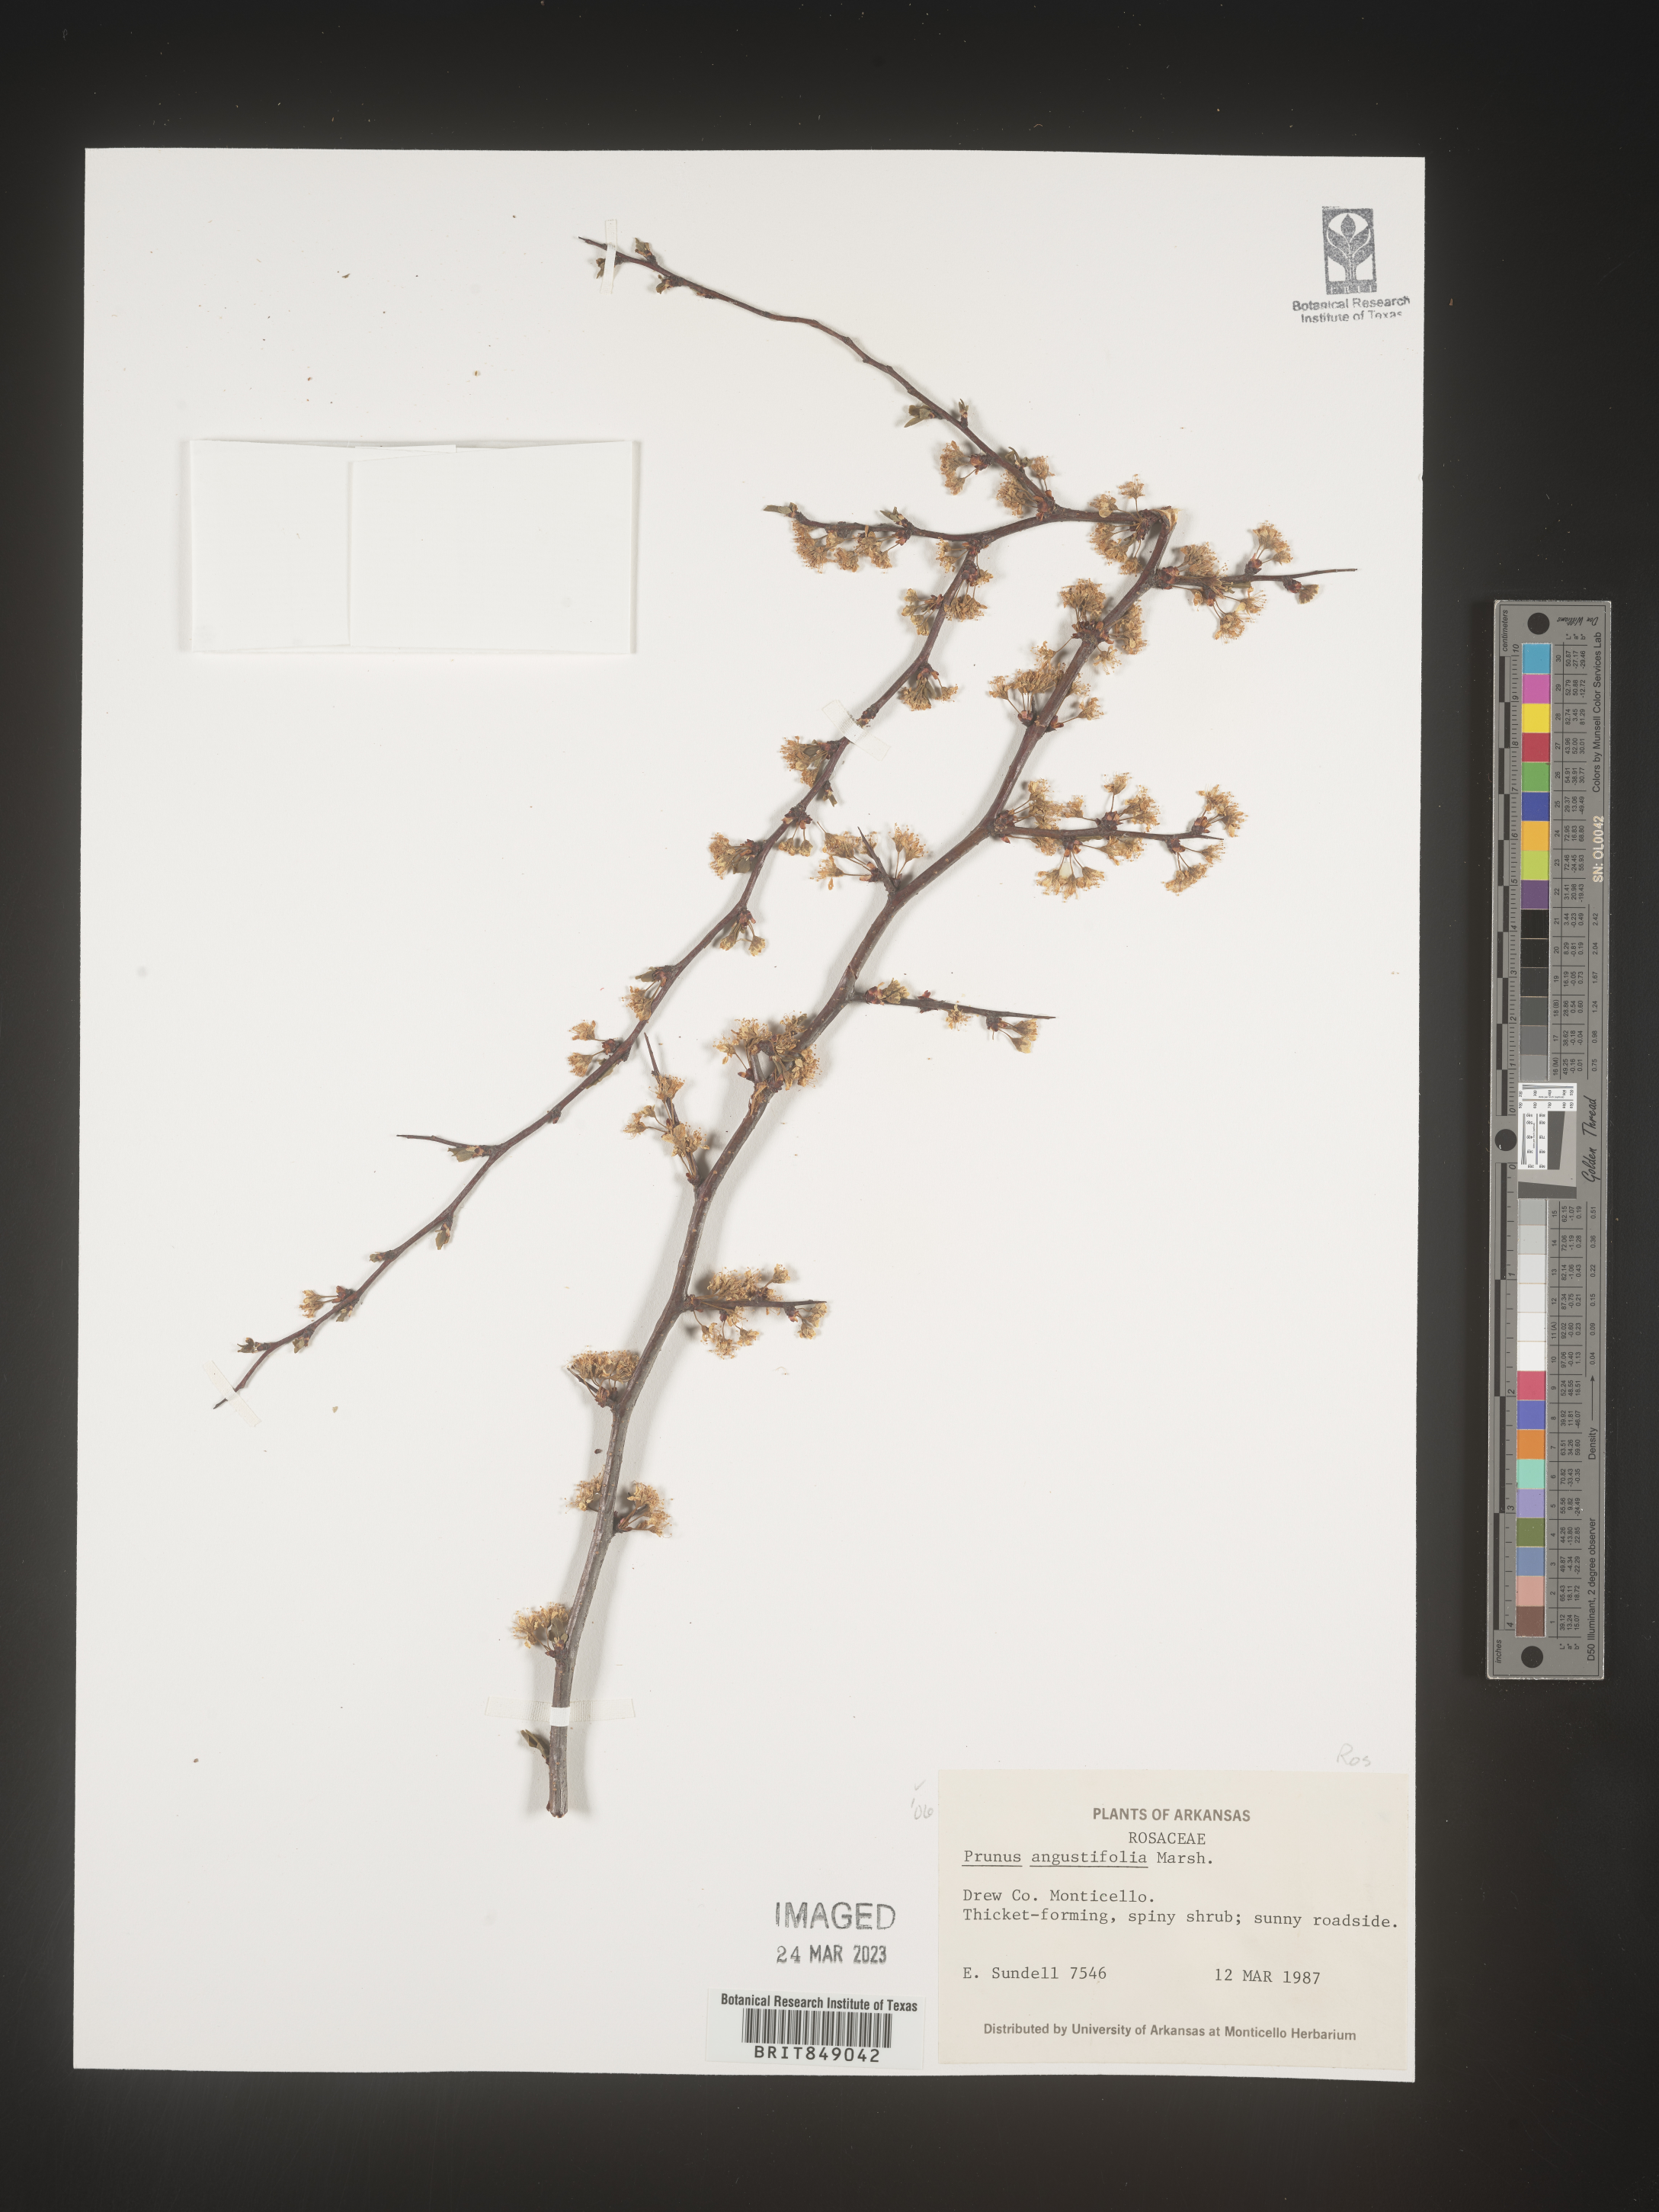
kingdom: Plantae
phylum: Tracheophyta
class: Magnoliopsida
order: Rosales
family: Rosaceae
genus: Prunus
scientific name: Prunus angustifolia
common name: Cherokee plum
